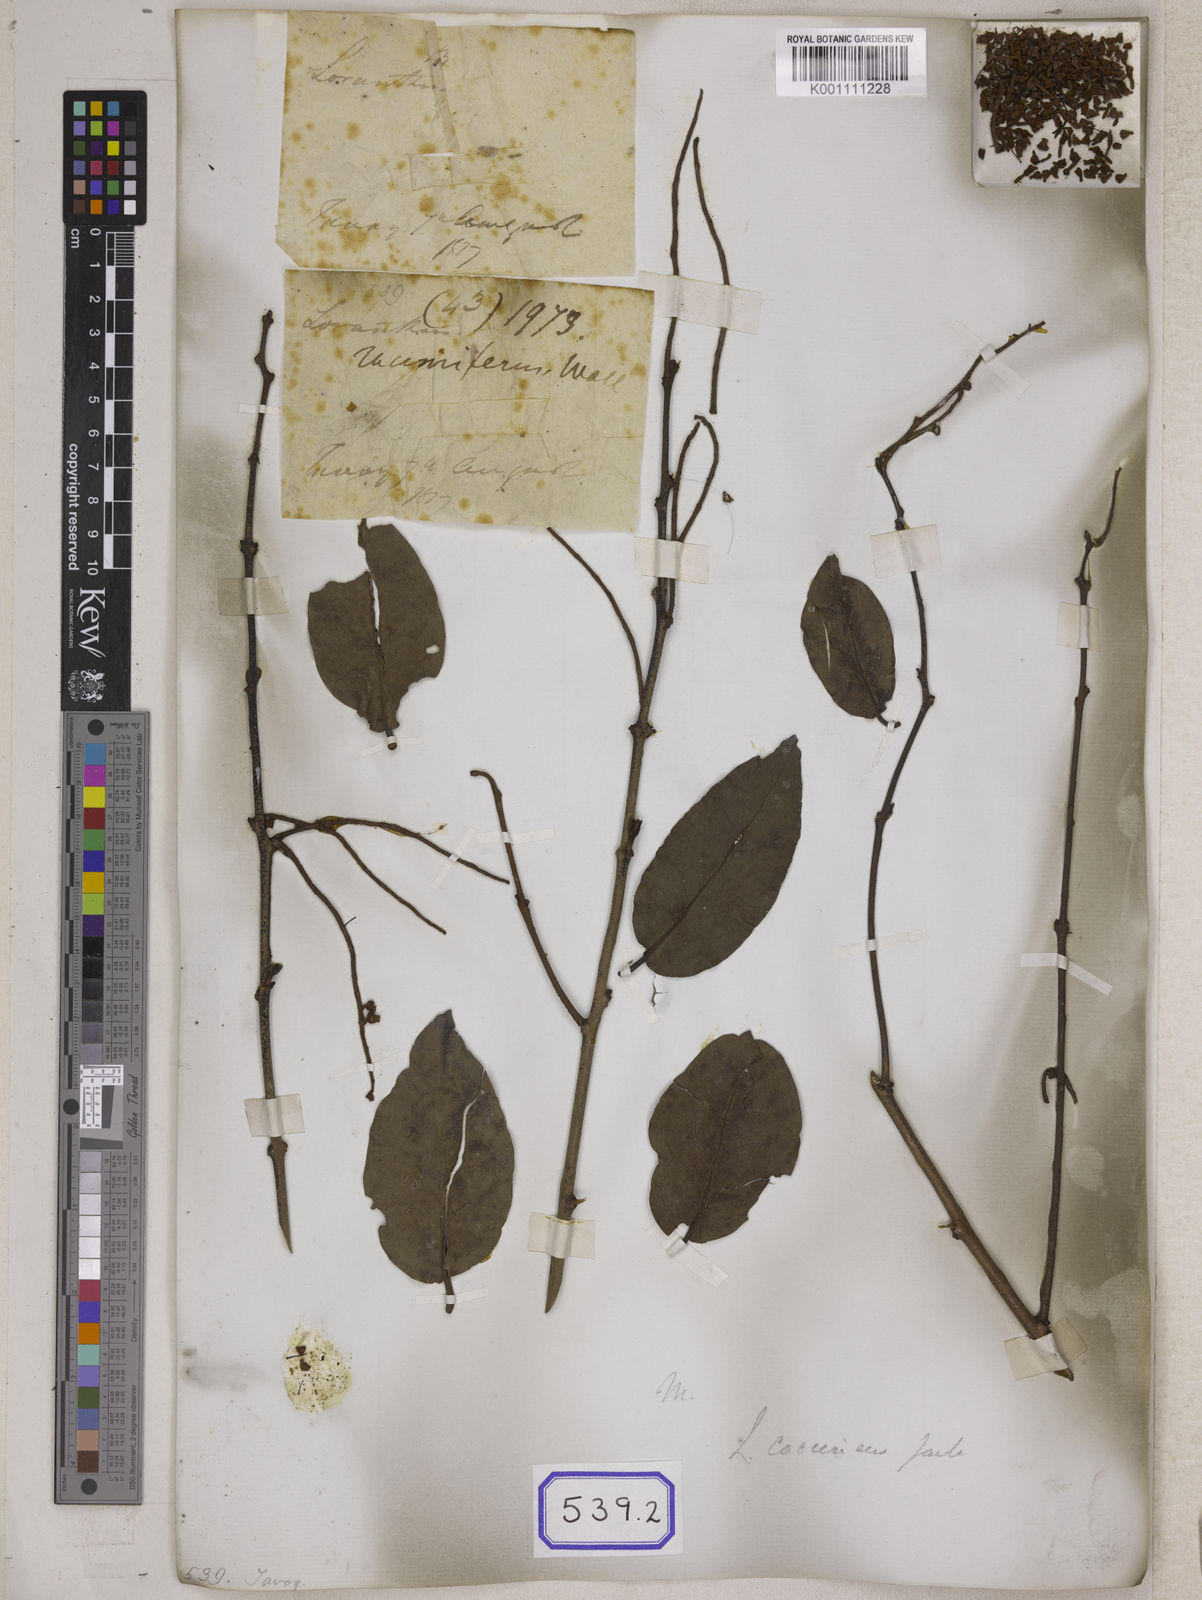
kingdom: Plantae
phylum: Tracheophyta
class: Magnoliopsida
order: Santalales
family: Loranthaceae
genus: Loranthus
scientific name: Loranthus
